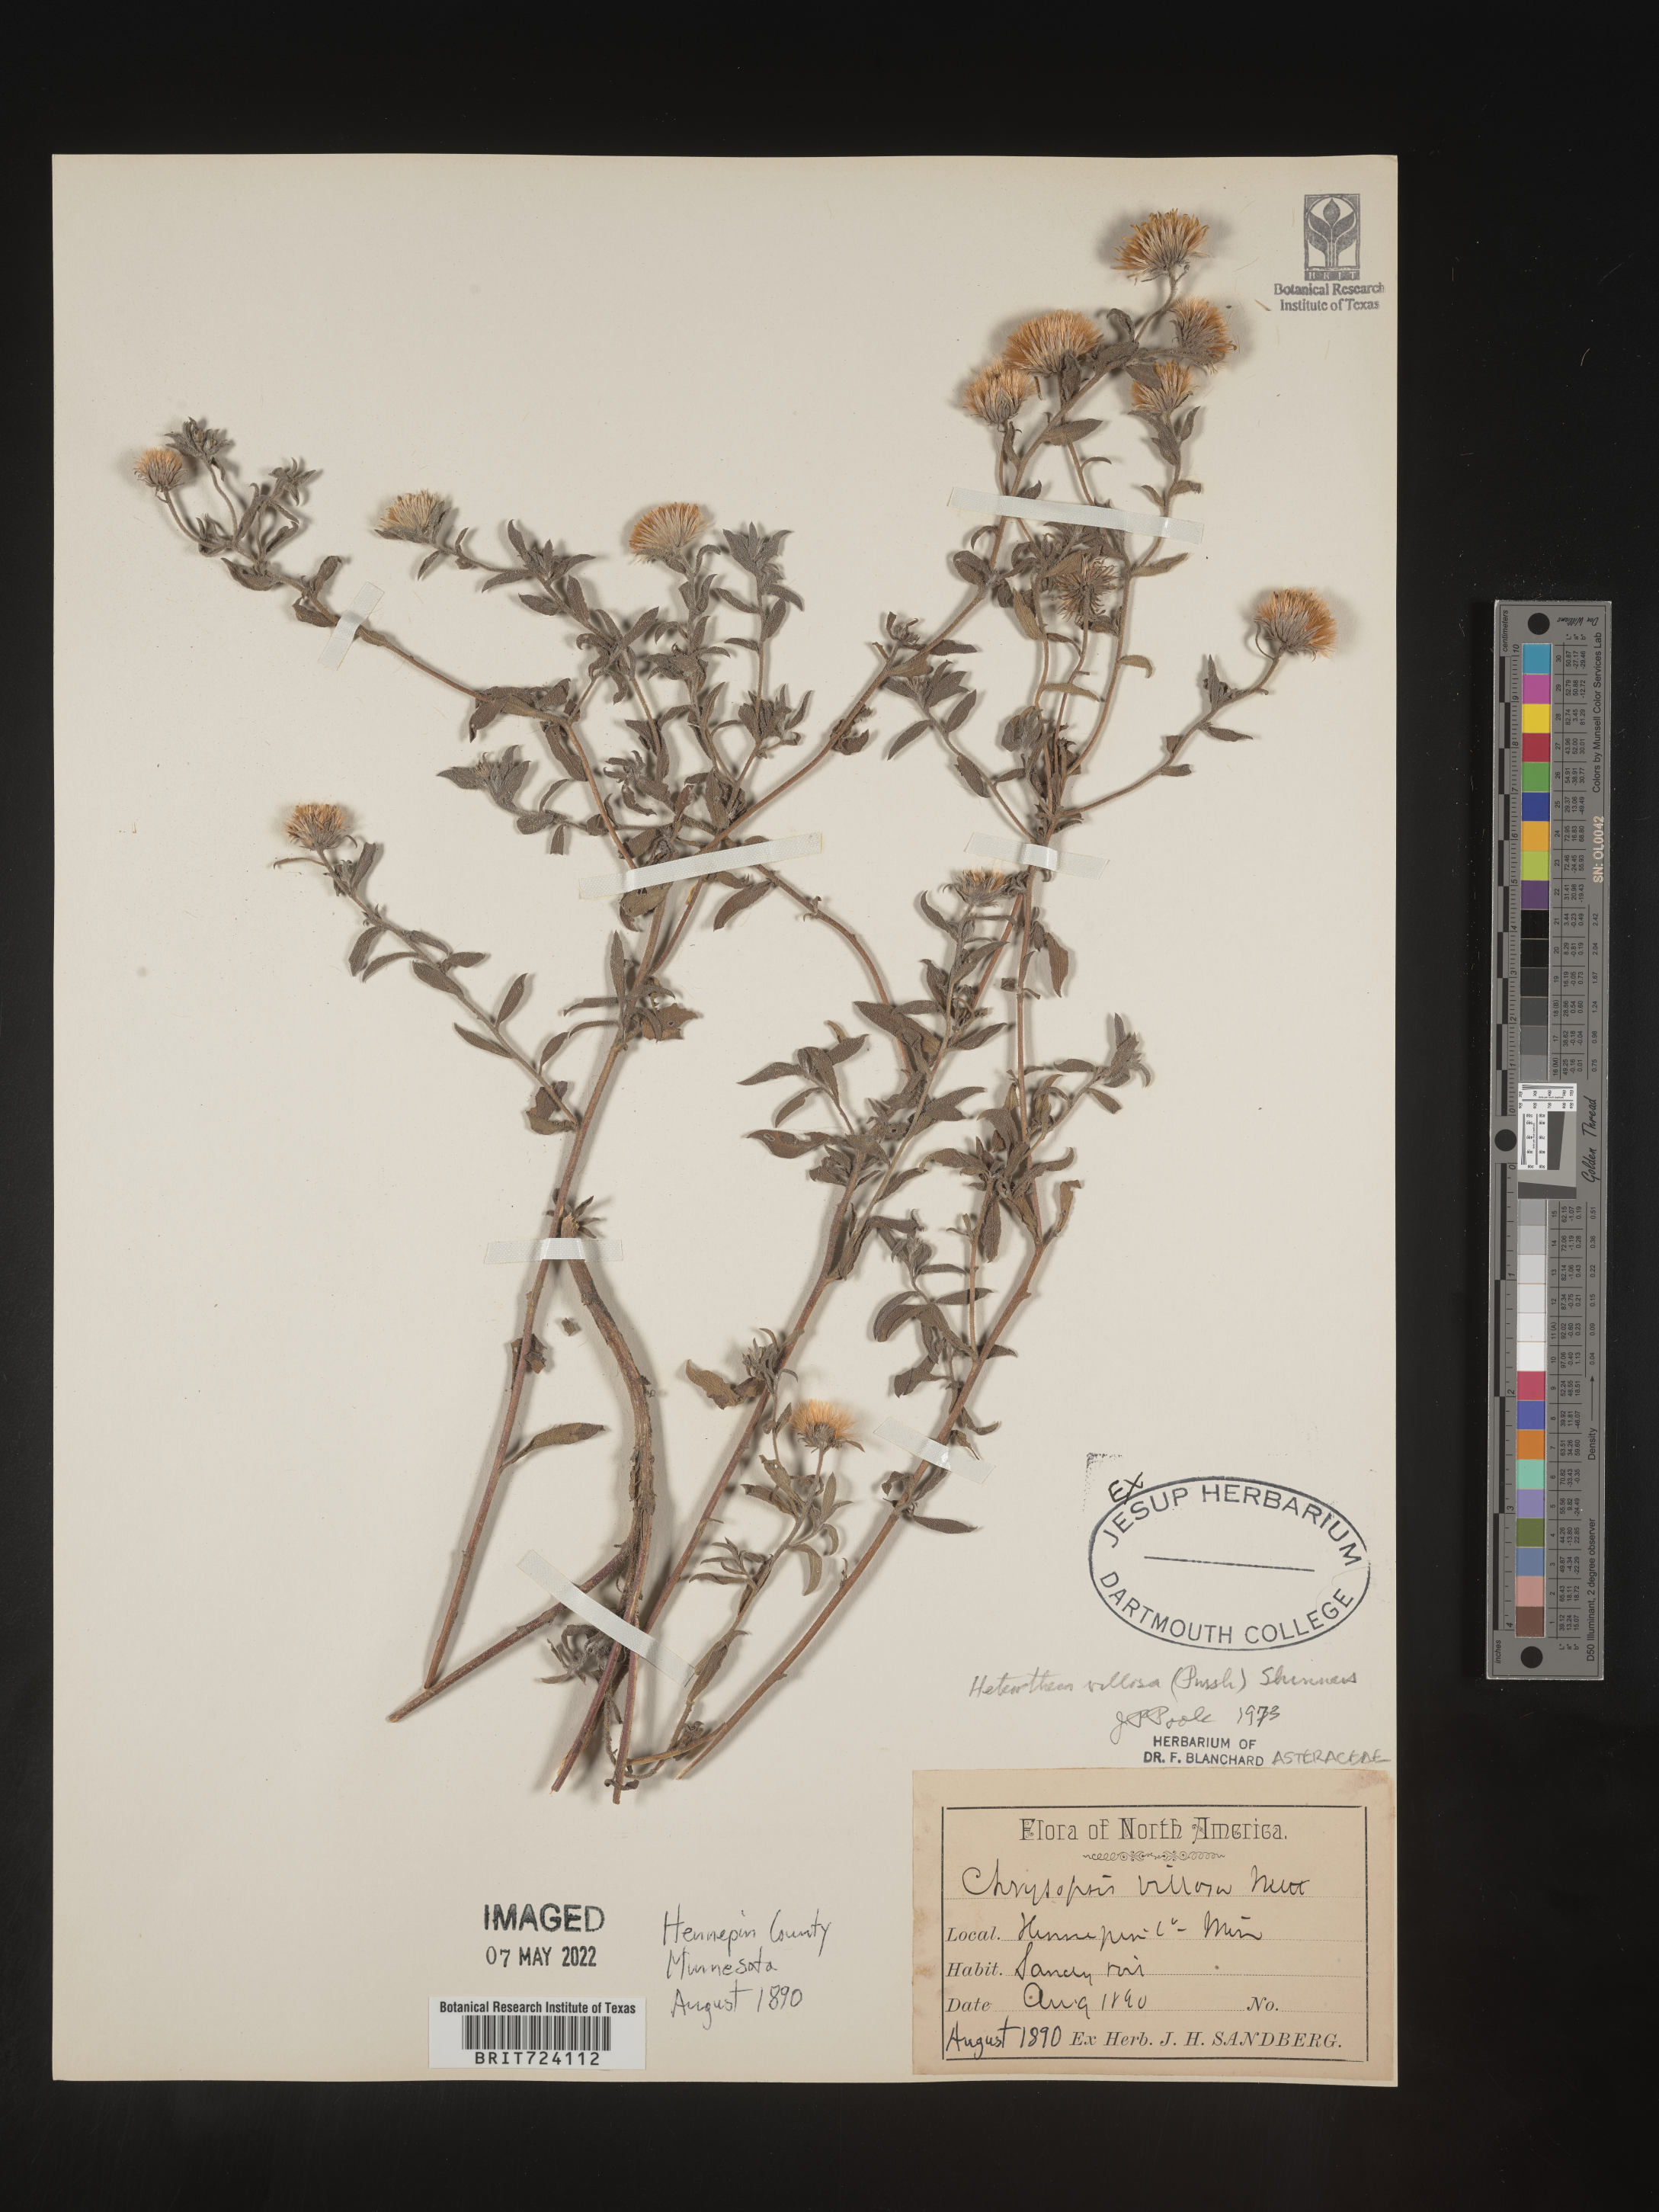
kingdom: Plantae
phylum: Tracheophyta
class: Magnoliopsida
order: Asterales
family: Asteraceae
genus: Heterotheca
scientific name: Heterotheca villosa
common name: Hairy false goldenaster
